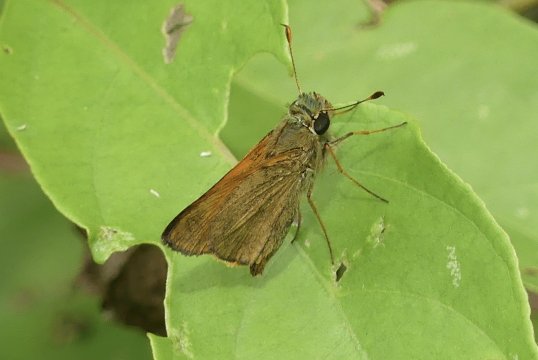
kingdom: Animalia
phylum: Arthropoda
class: Insecta
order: Lepidoptera
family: Hesperiidae
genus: Polites
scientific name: Polites baracoa
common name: Baracoa Skipper
